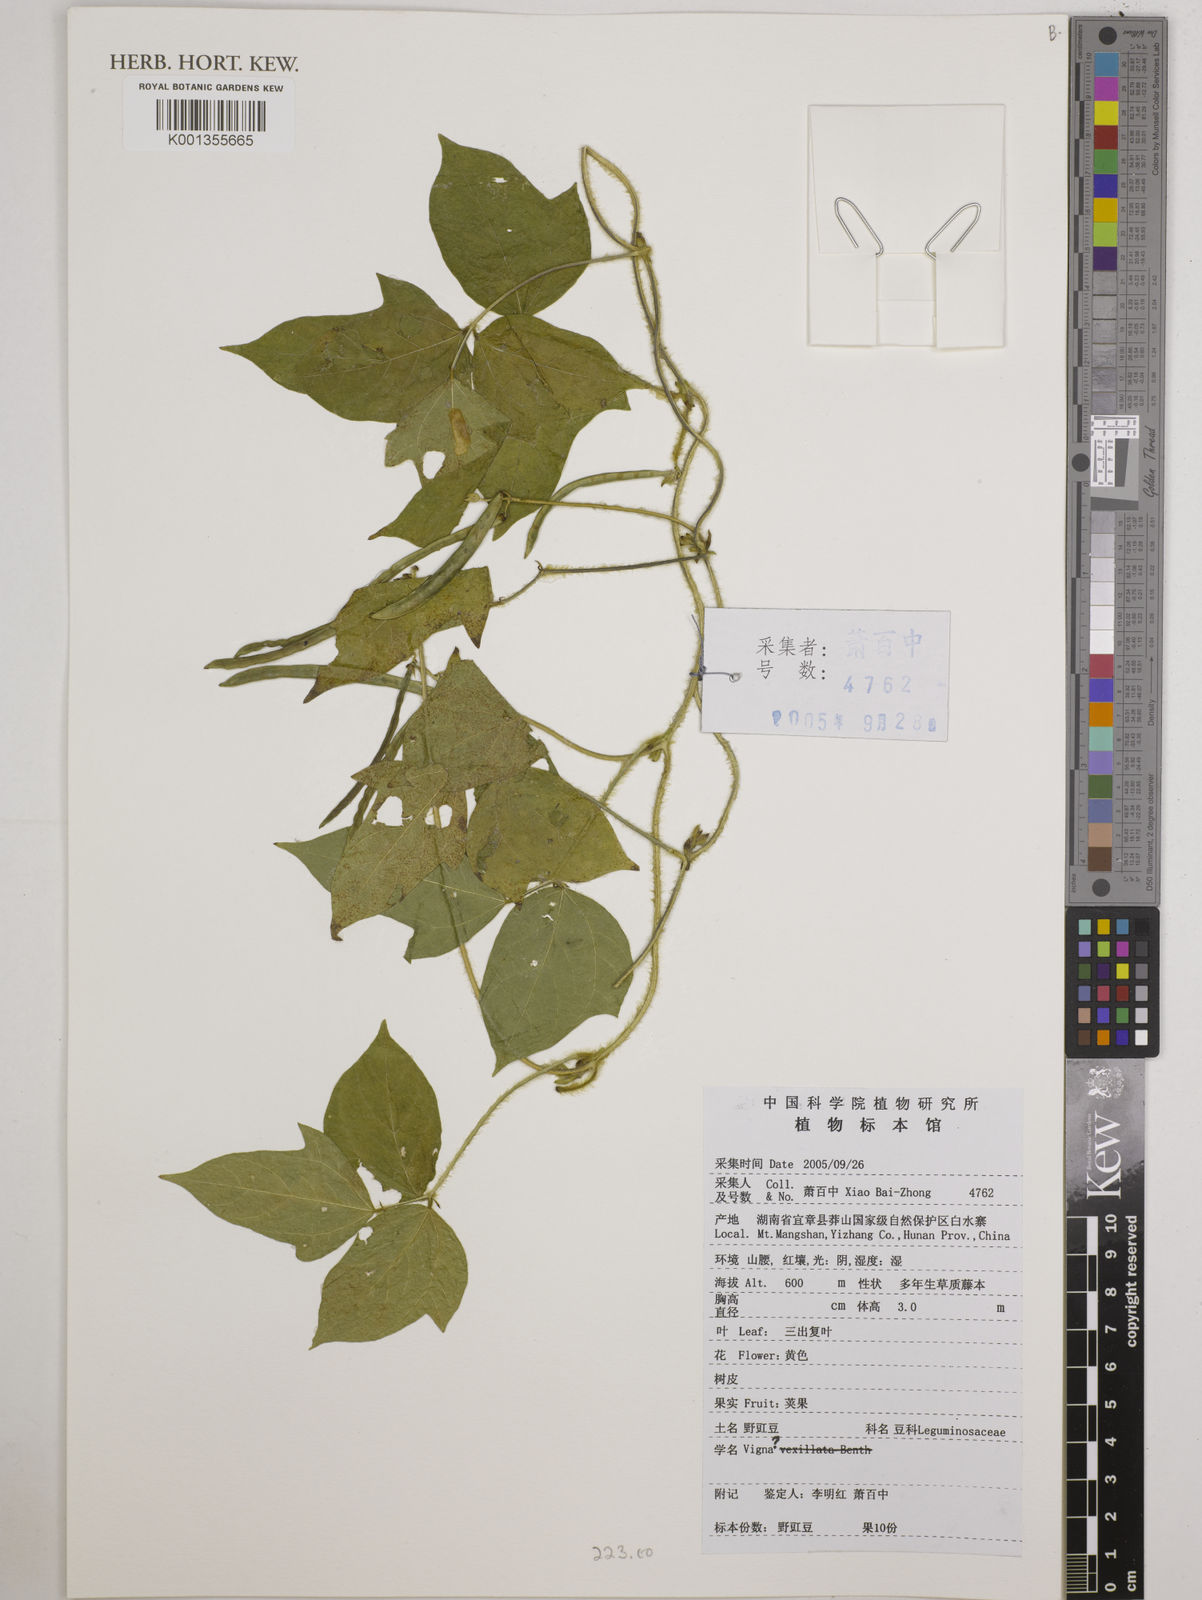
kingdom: Plantae
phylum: Tracheophyta
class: Magnoliopsida
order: Fabales
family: Fabaceae
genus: Vigna
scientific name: Vigna
